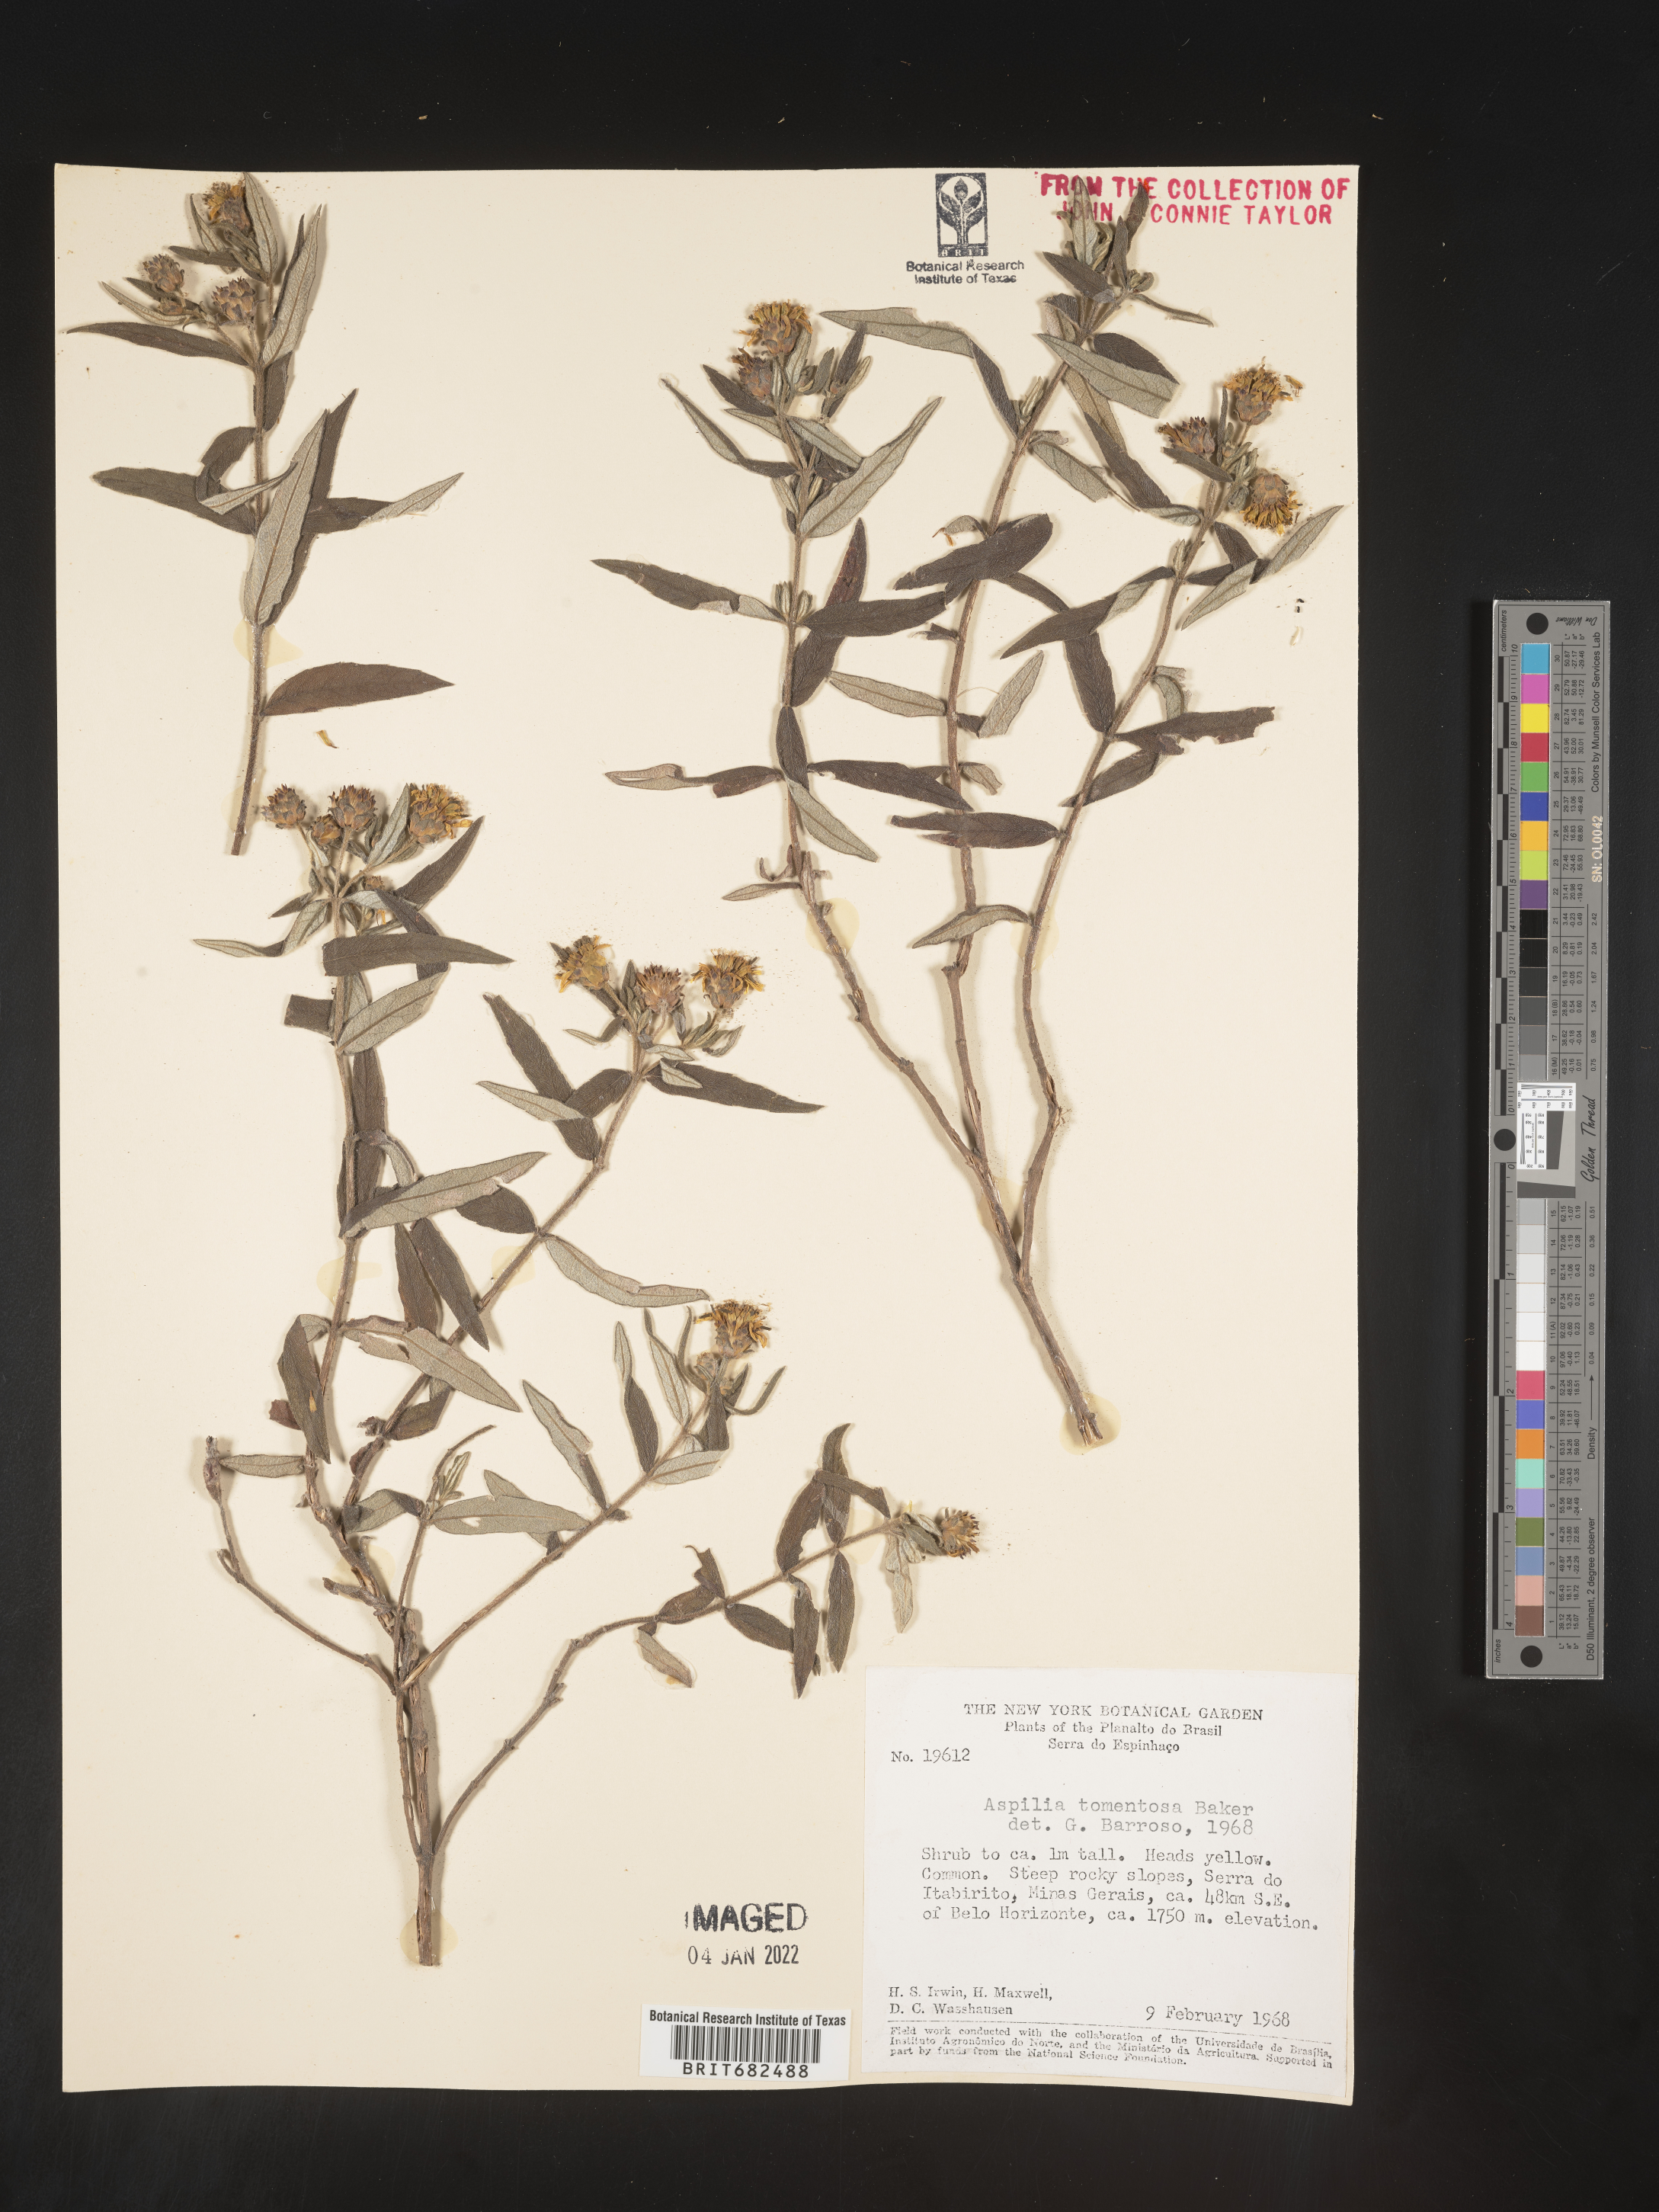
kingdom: Plantae
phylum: Tracheophyta
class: Magnoliopsida
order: Asterales
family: Asteraceae
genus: Aspilia
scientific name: Aspilia
